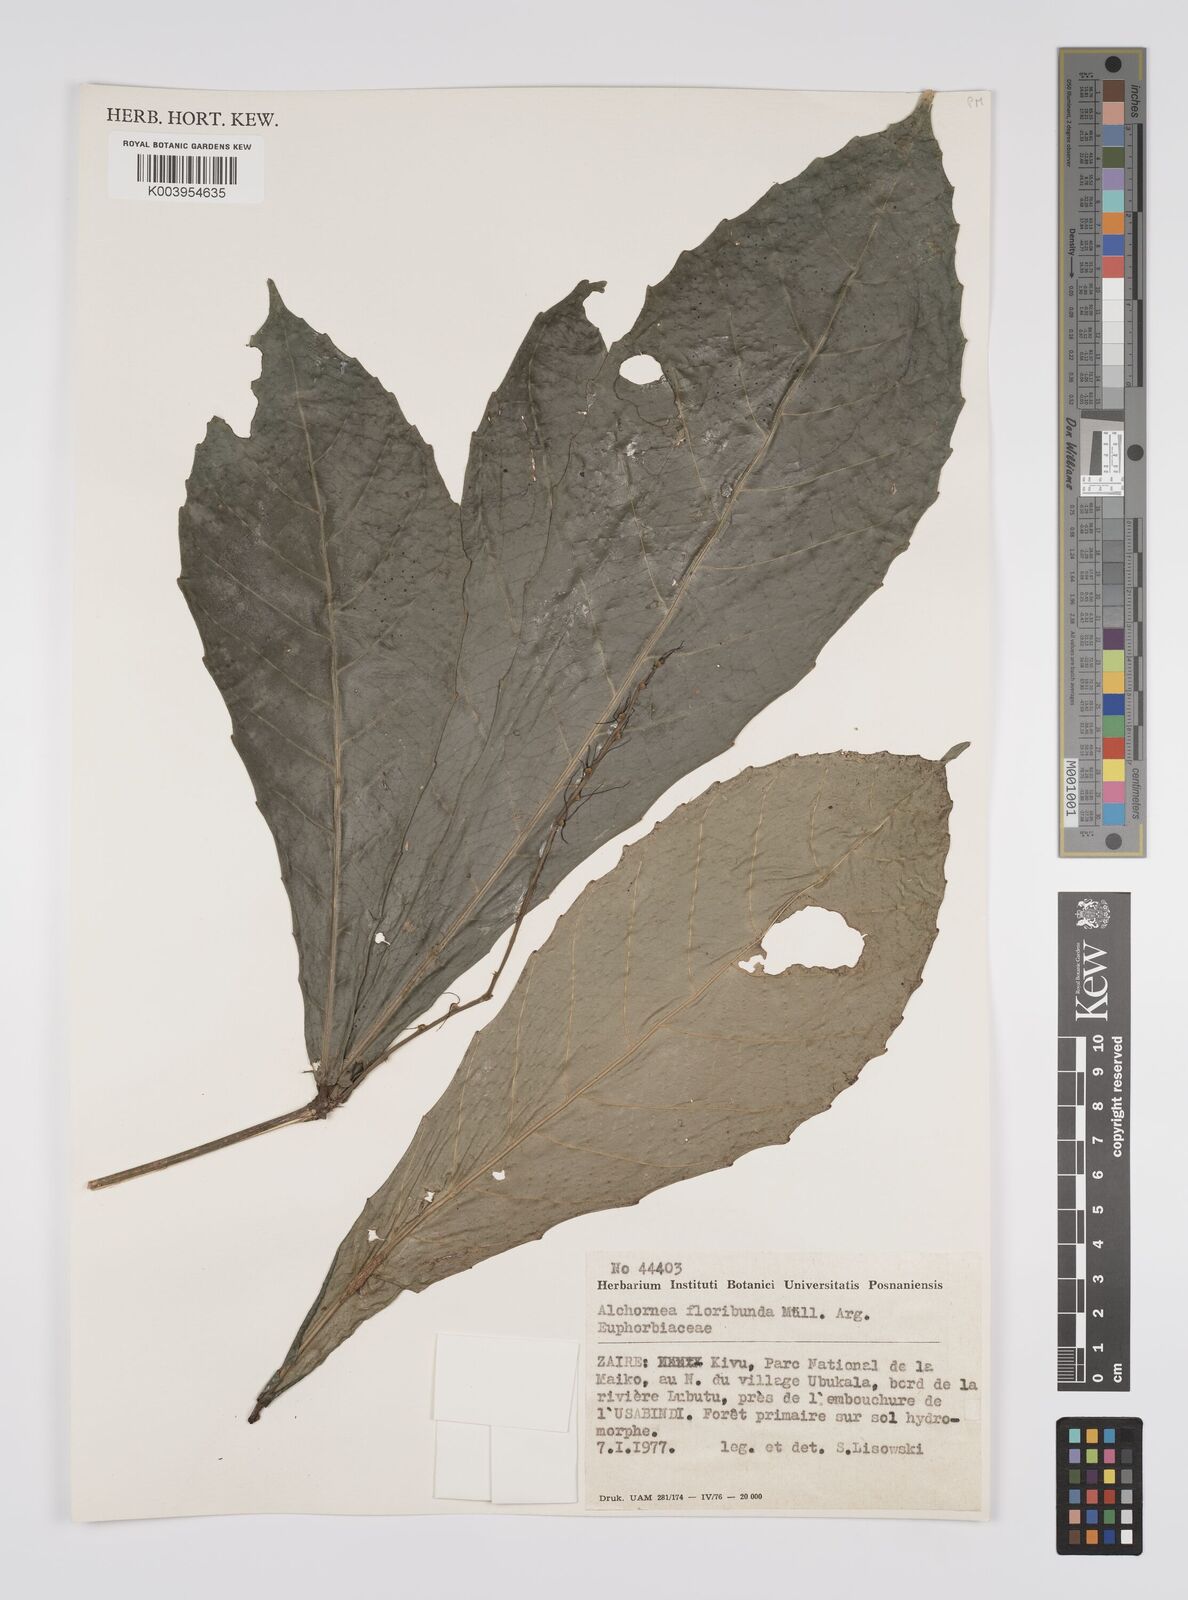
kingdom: Plantae
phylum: Tracheophyta
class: Magnoliopsida
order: Malpighiales
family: Euphorbiaceae
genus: Alchornea
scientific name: Alchornea floribunda
